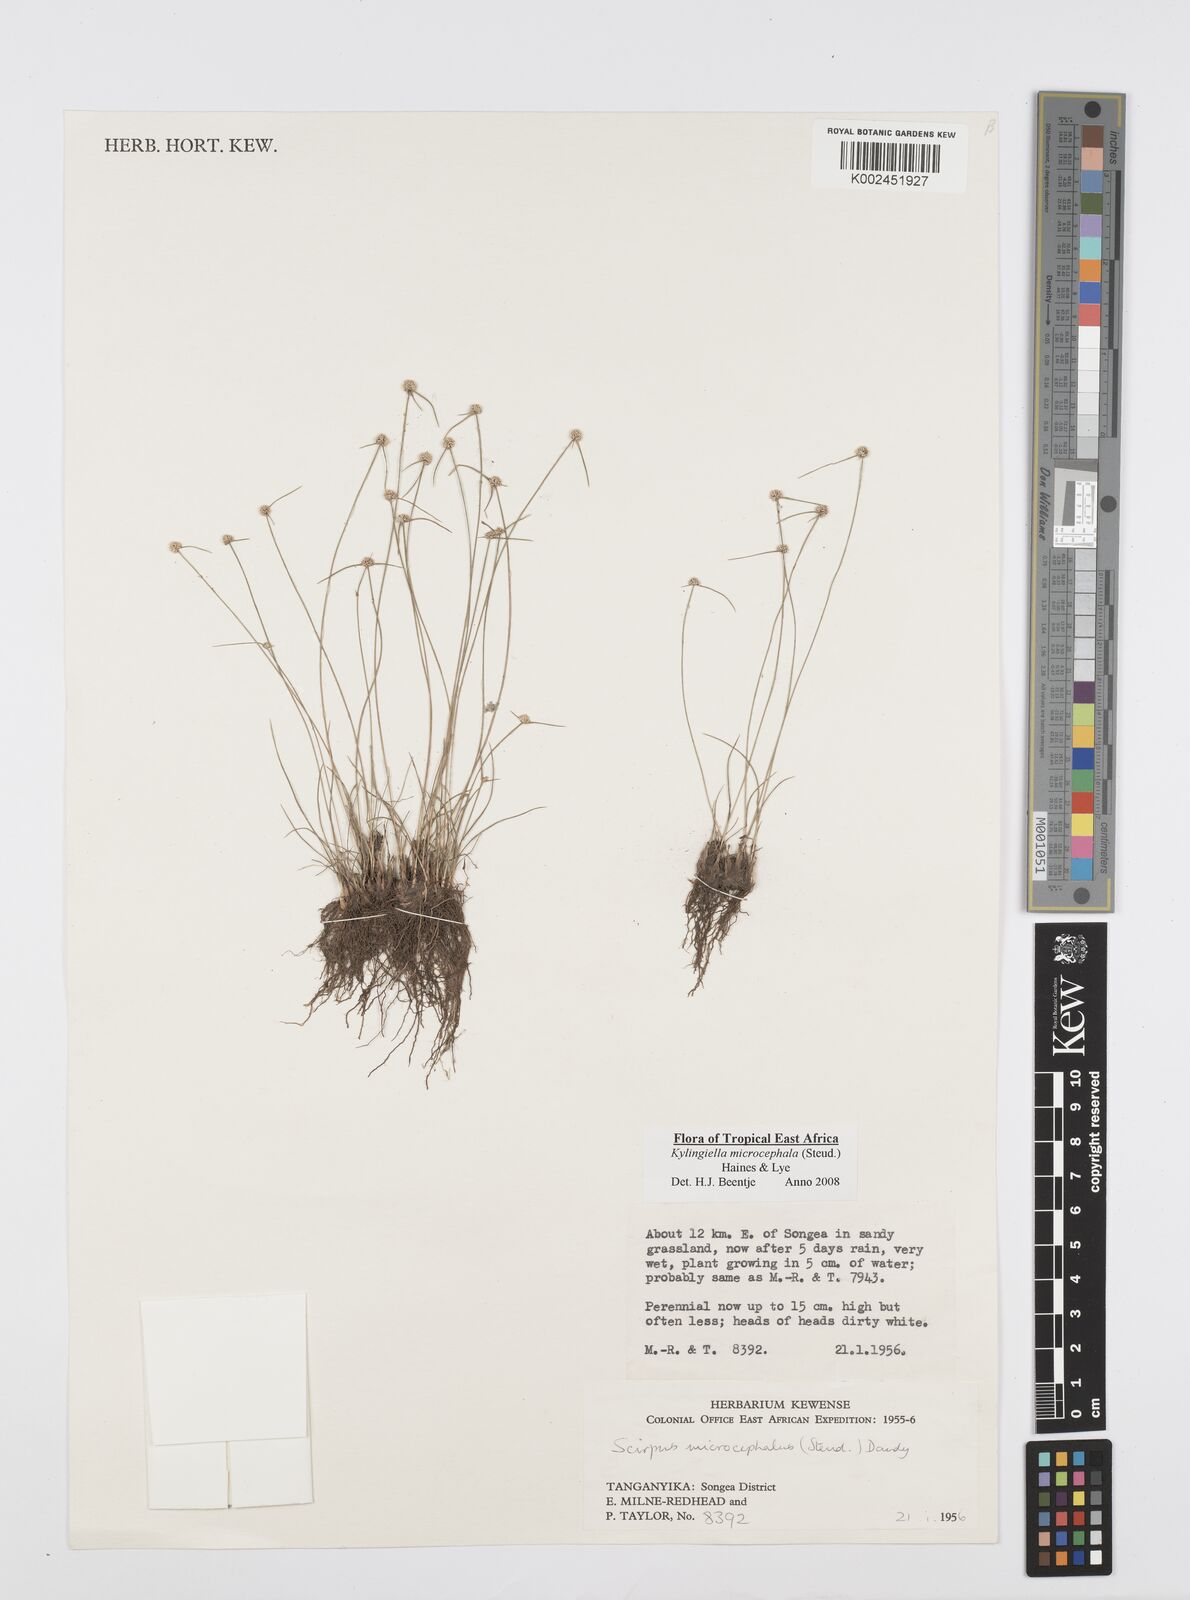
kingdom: Plantae
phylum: Tracheophyta
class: Liliopsida
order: Poales
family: Cyperaceae
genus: Cyperus
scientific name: Cyperus microcephalus
